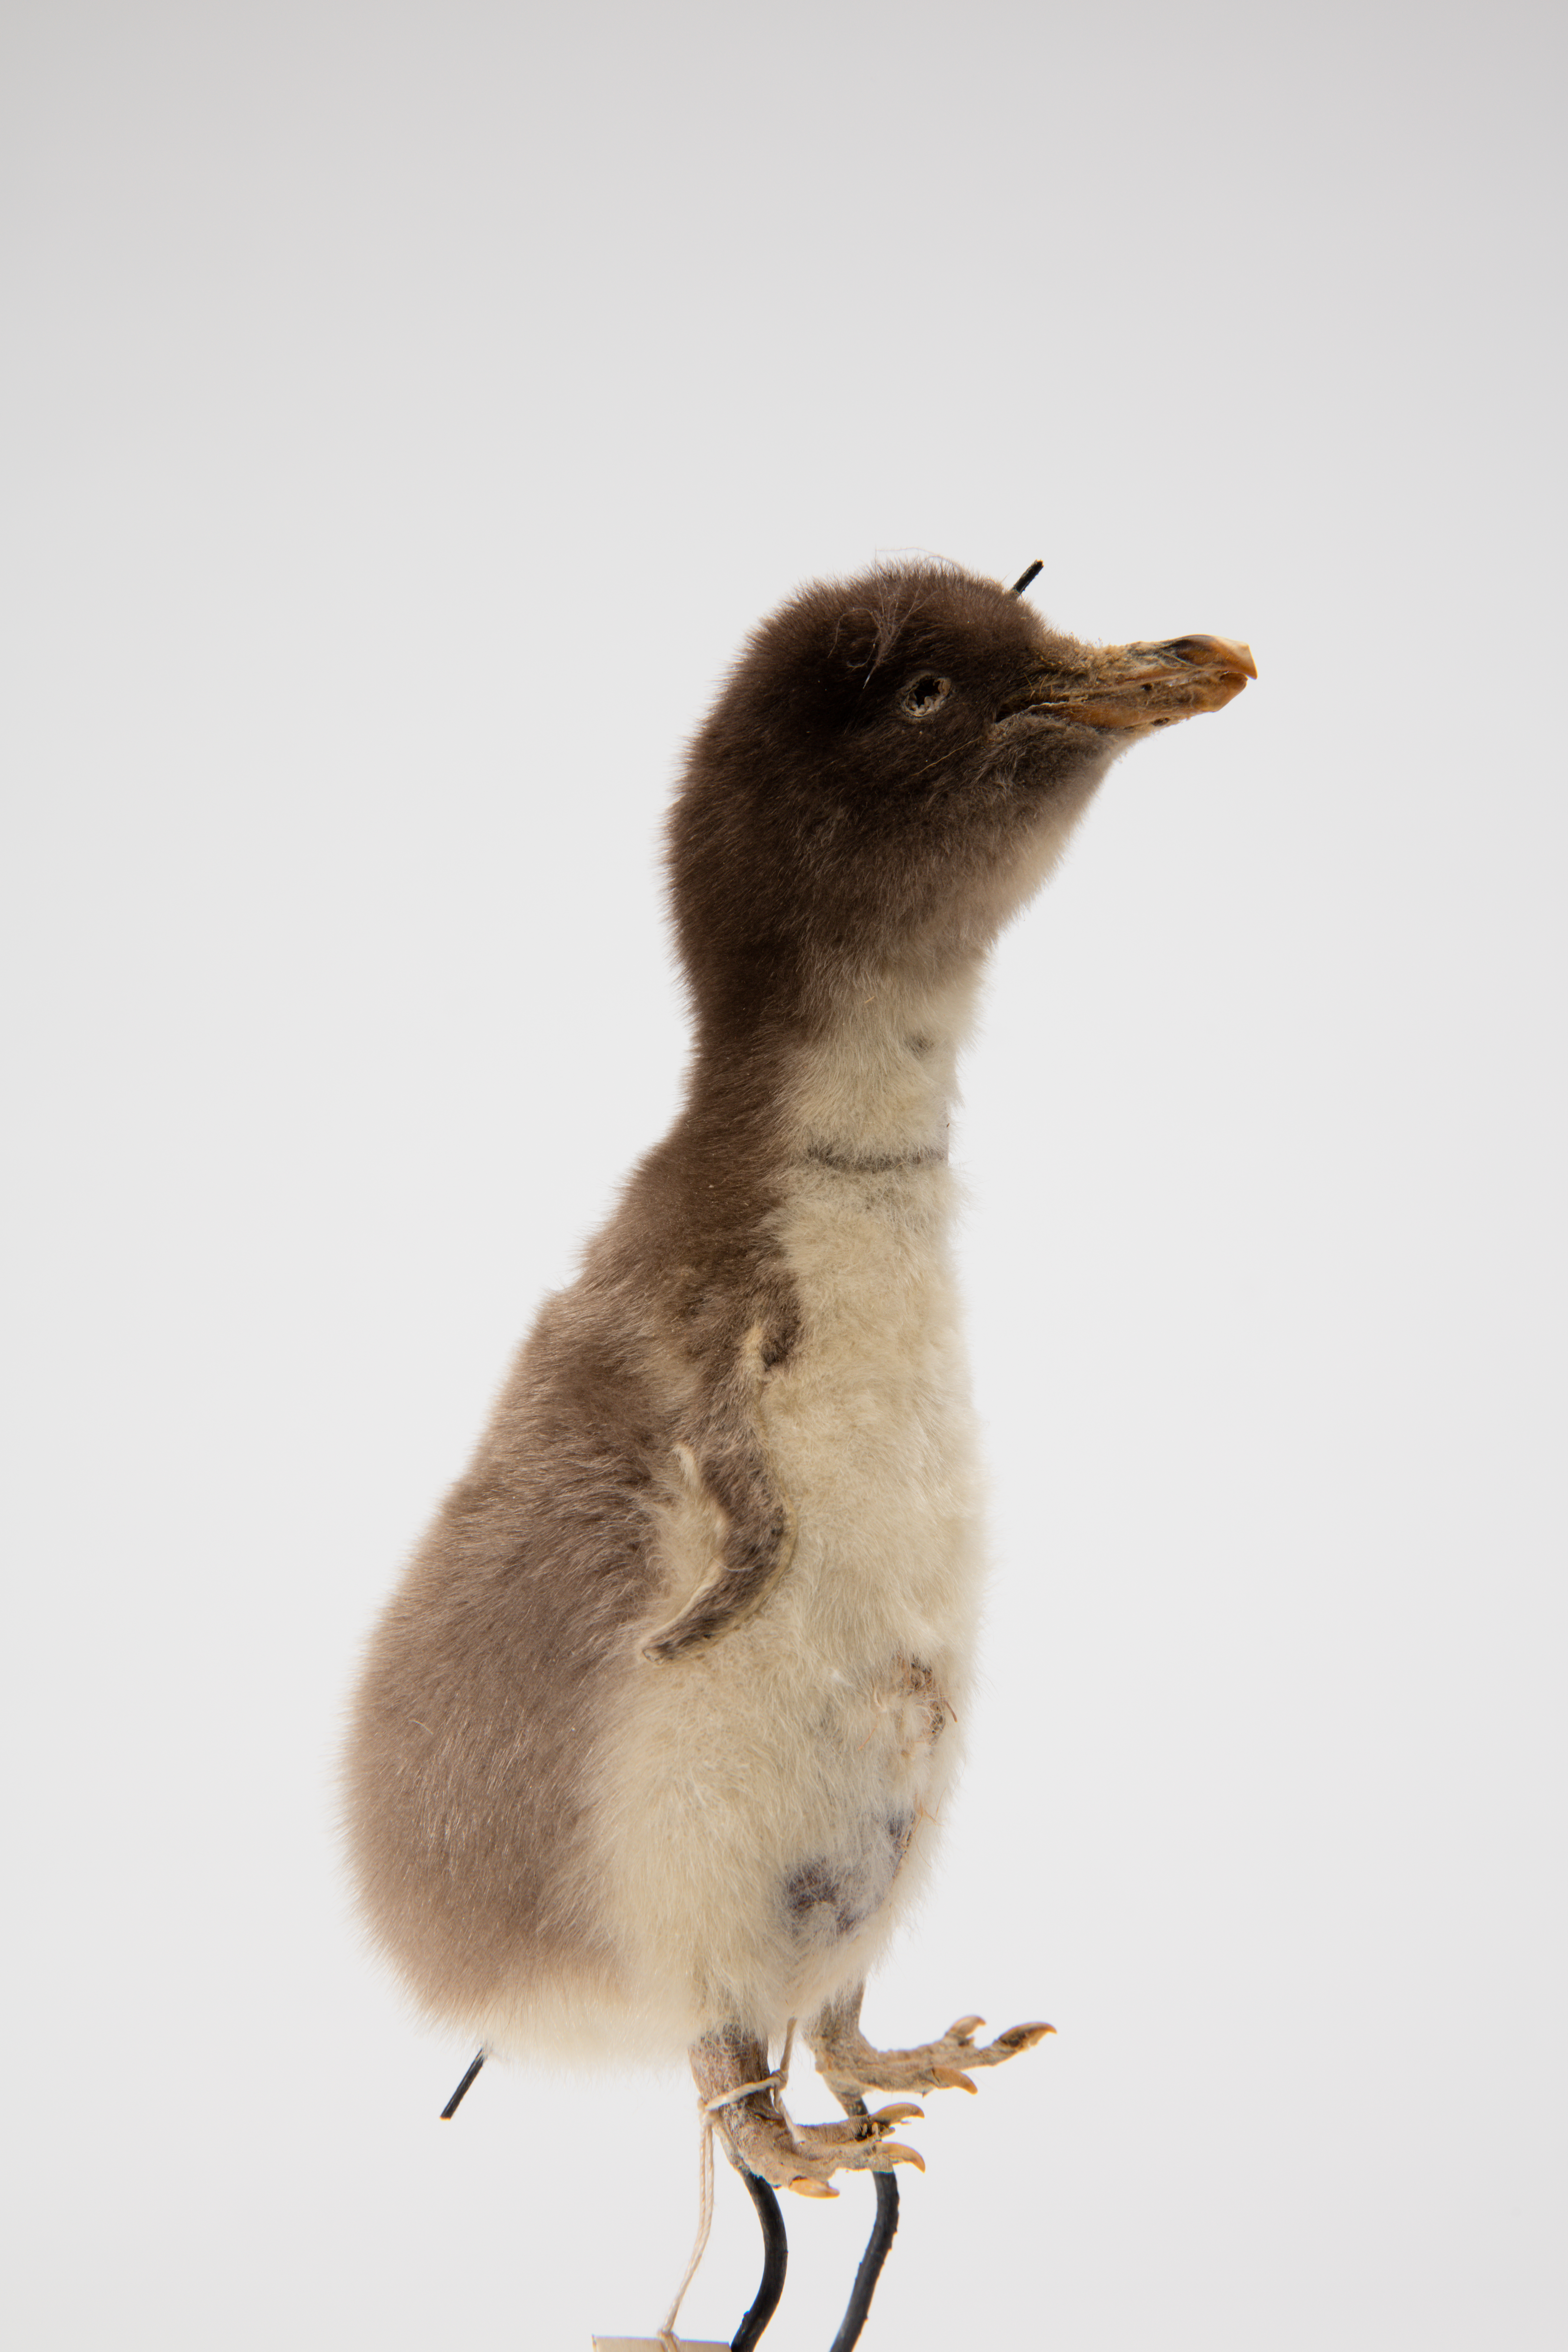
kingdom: Animalia
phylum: Chordata
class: Aves
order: Sphenisciformes
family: Spheniscidae
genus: Pygoscelis
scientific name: Pygoscelis papua
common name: Gentoo penguin
